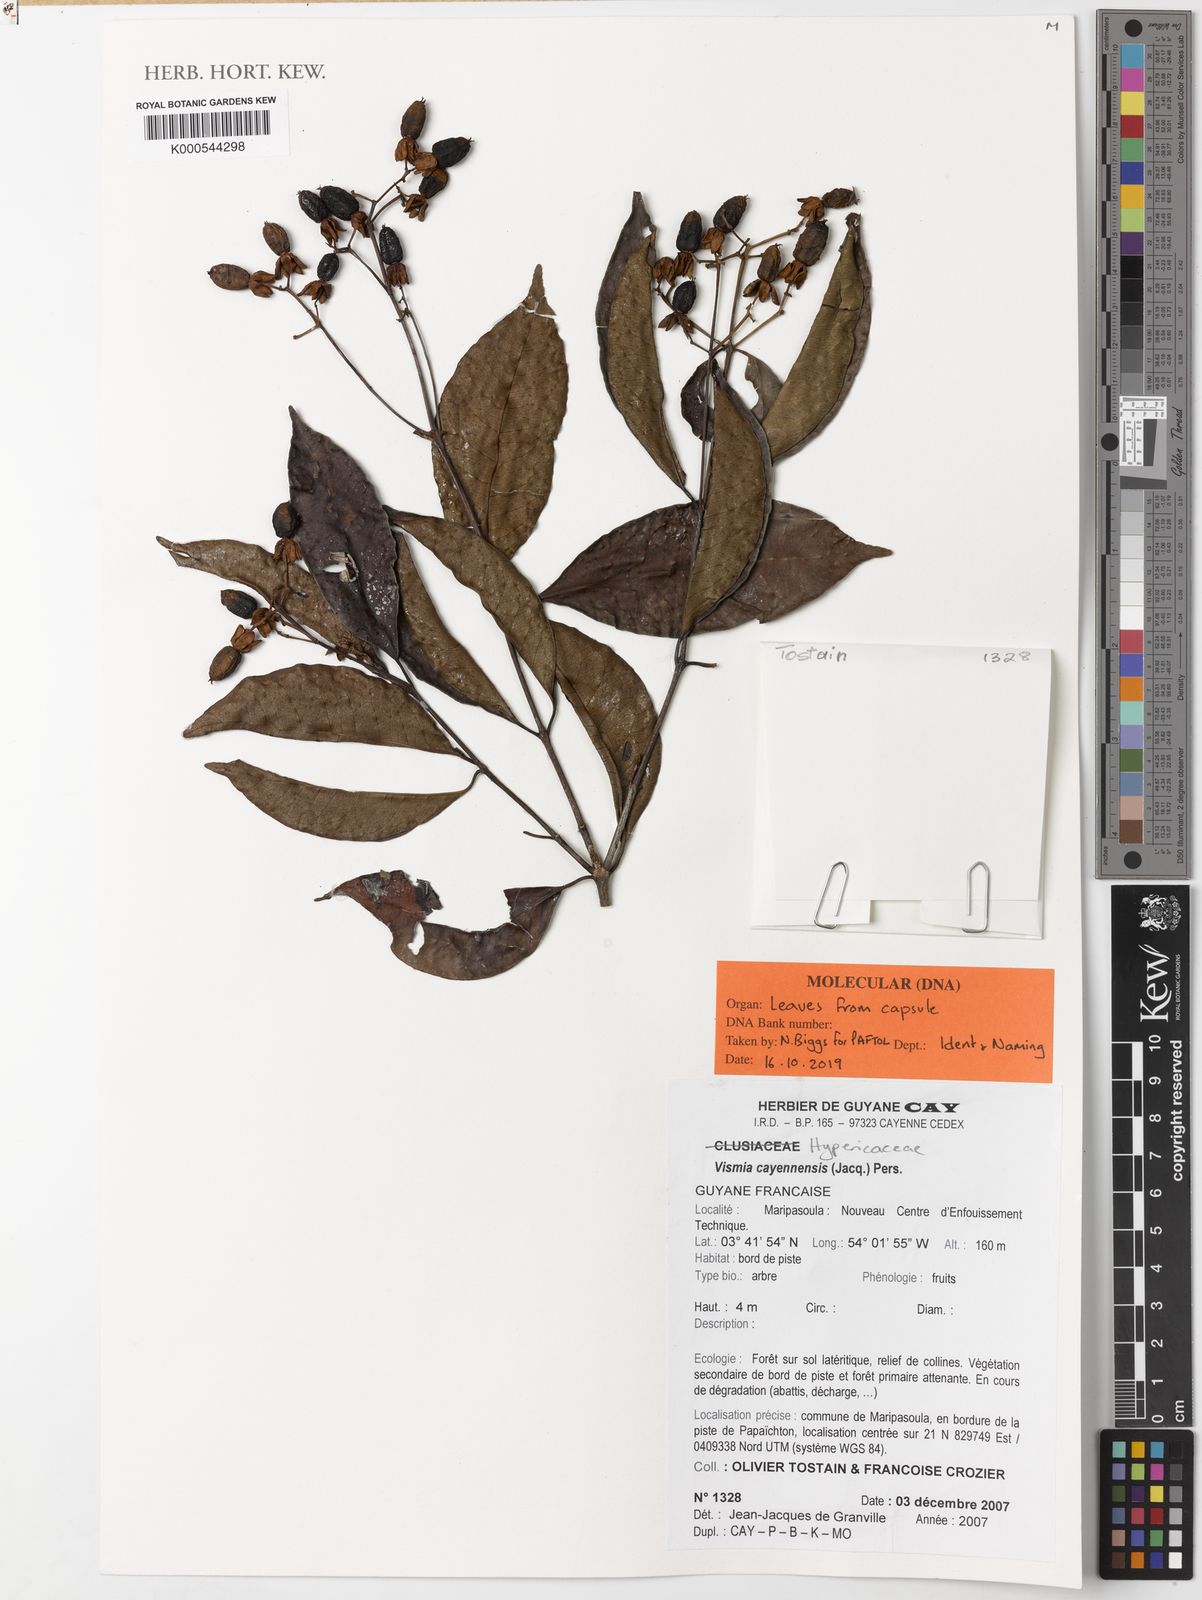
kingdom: Plantae
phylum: Tracheophyta
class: Magnoliopsida
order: Malpighiales
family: Hypericaceae
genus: Vismia
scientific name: Vismia cayennensis
